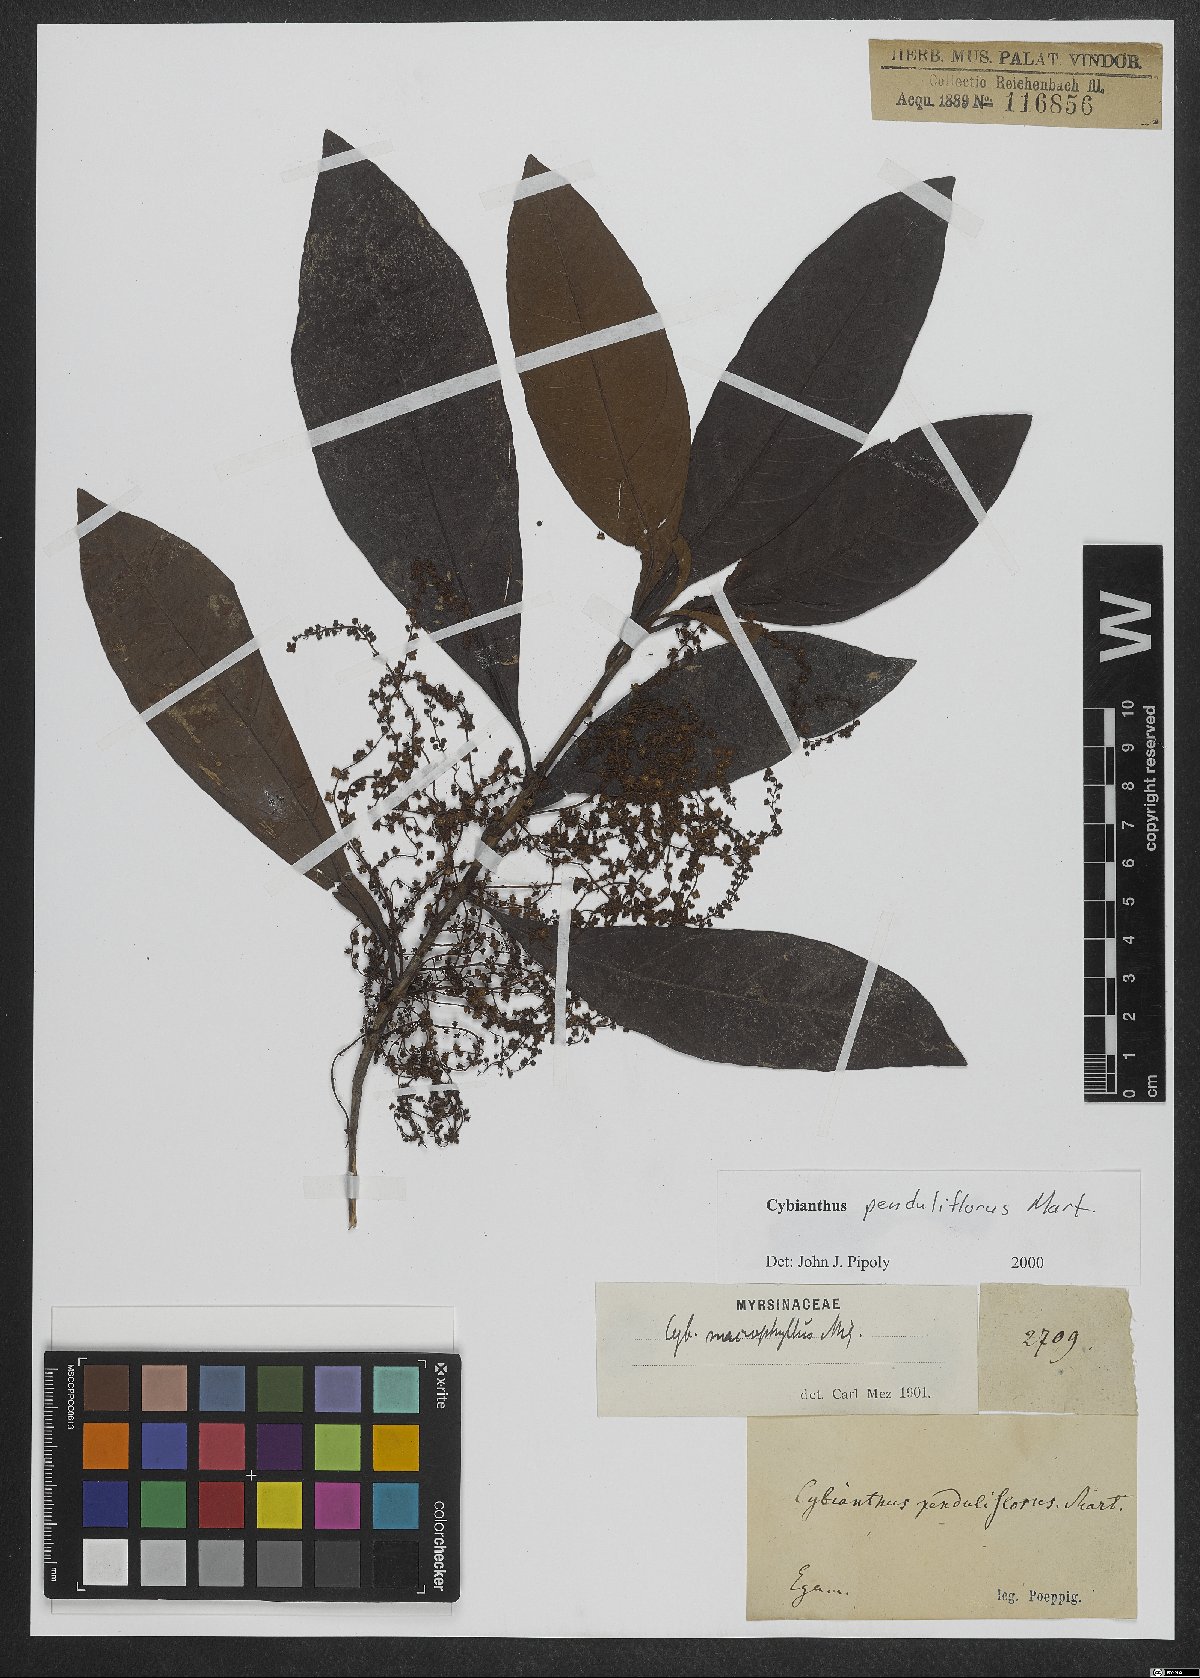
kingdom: Plantae
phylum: Tracheophyta
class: Magnoliopsida
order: Ericales
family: Primulaceae
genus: Cybianthus
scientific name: Cybianthus penduliflorus
